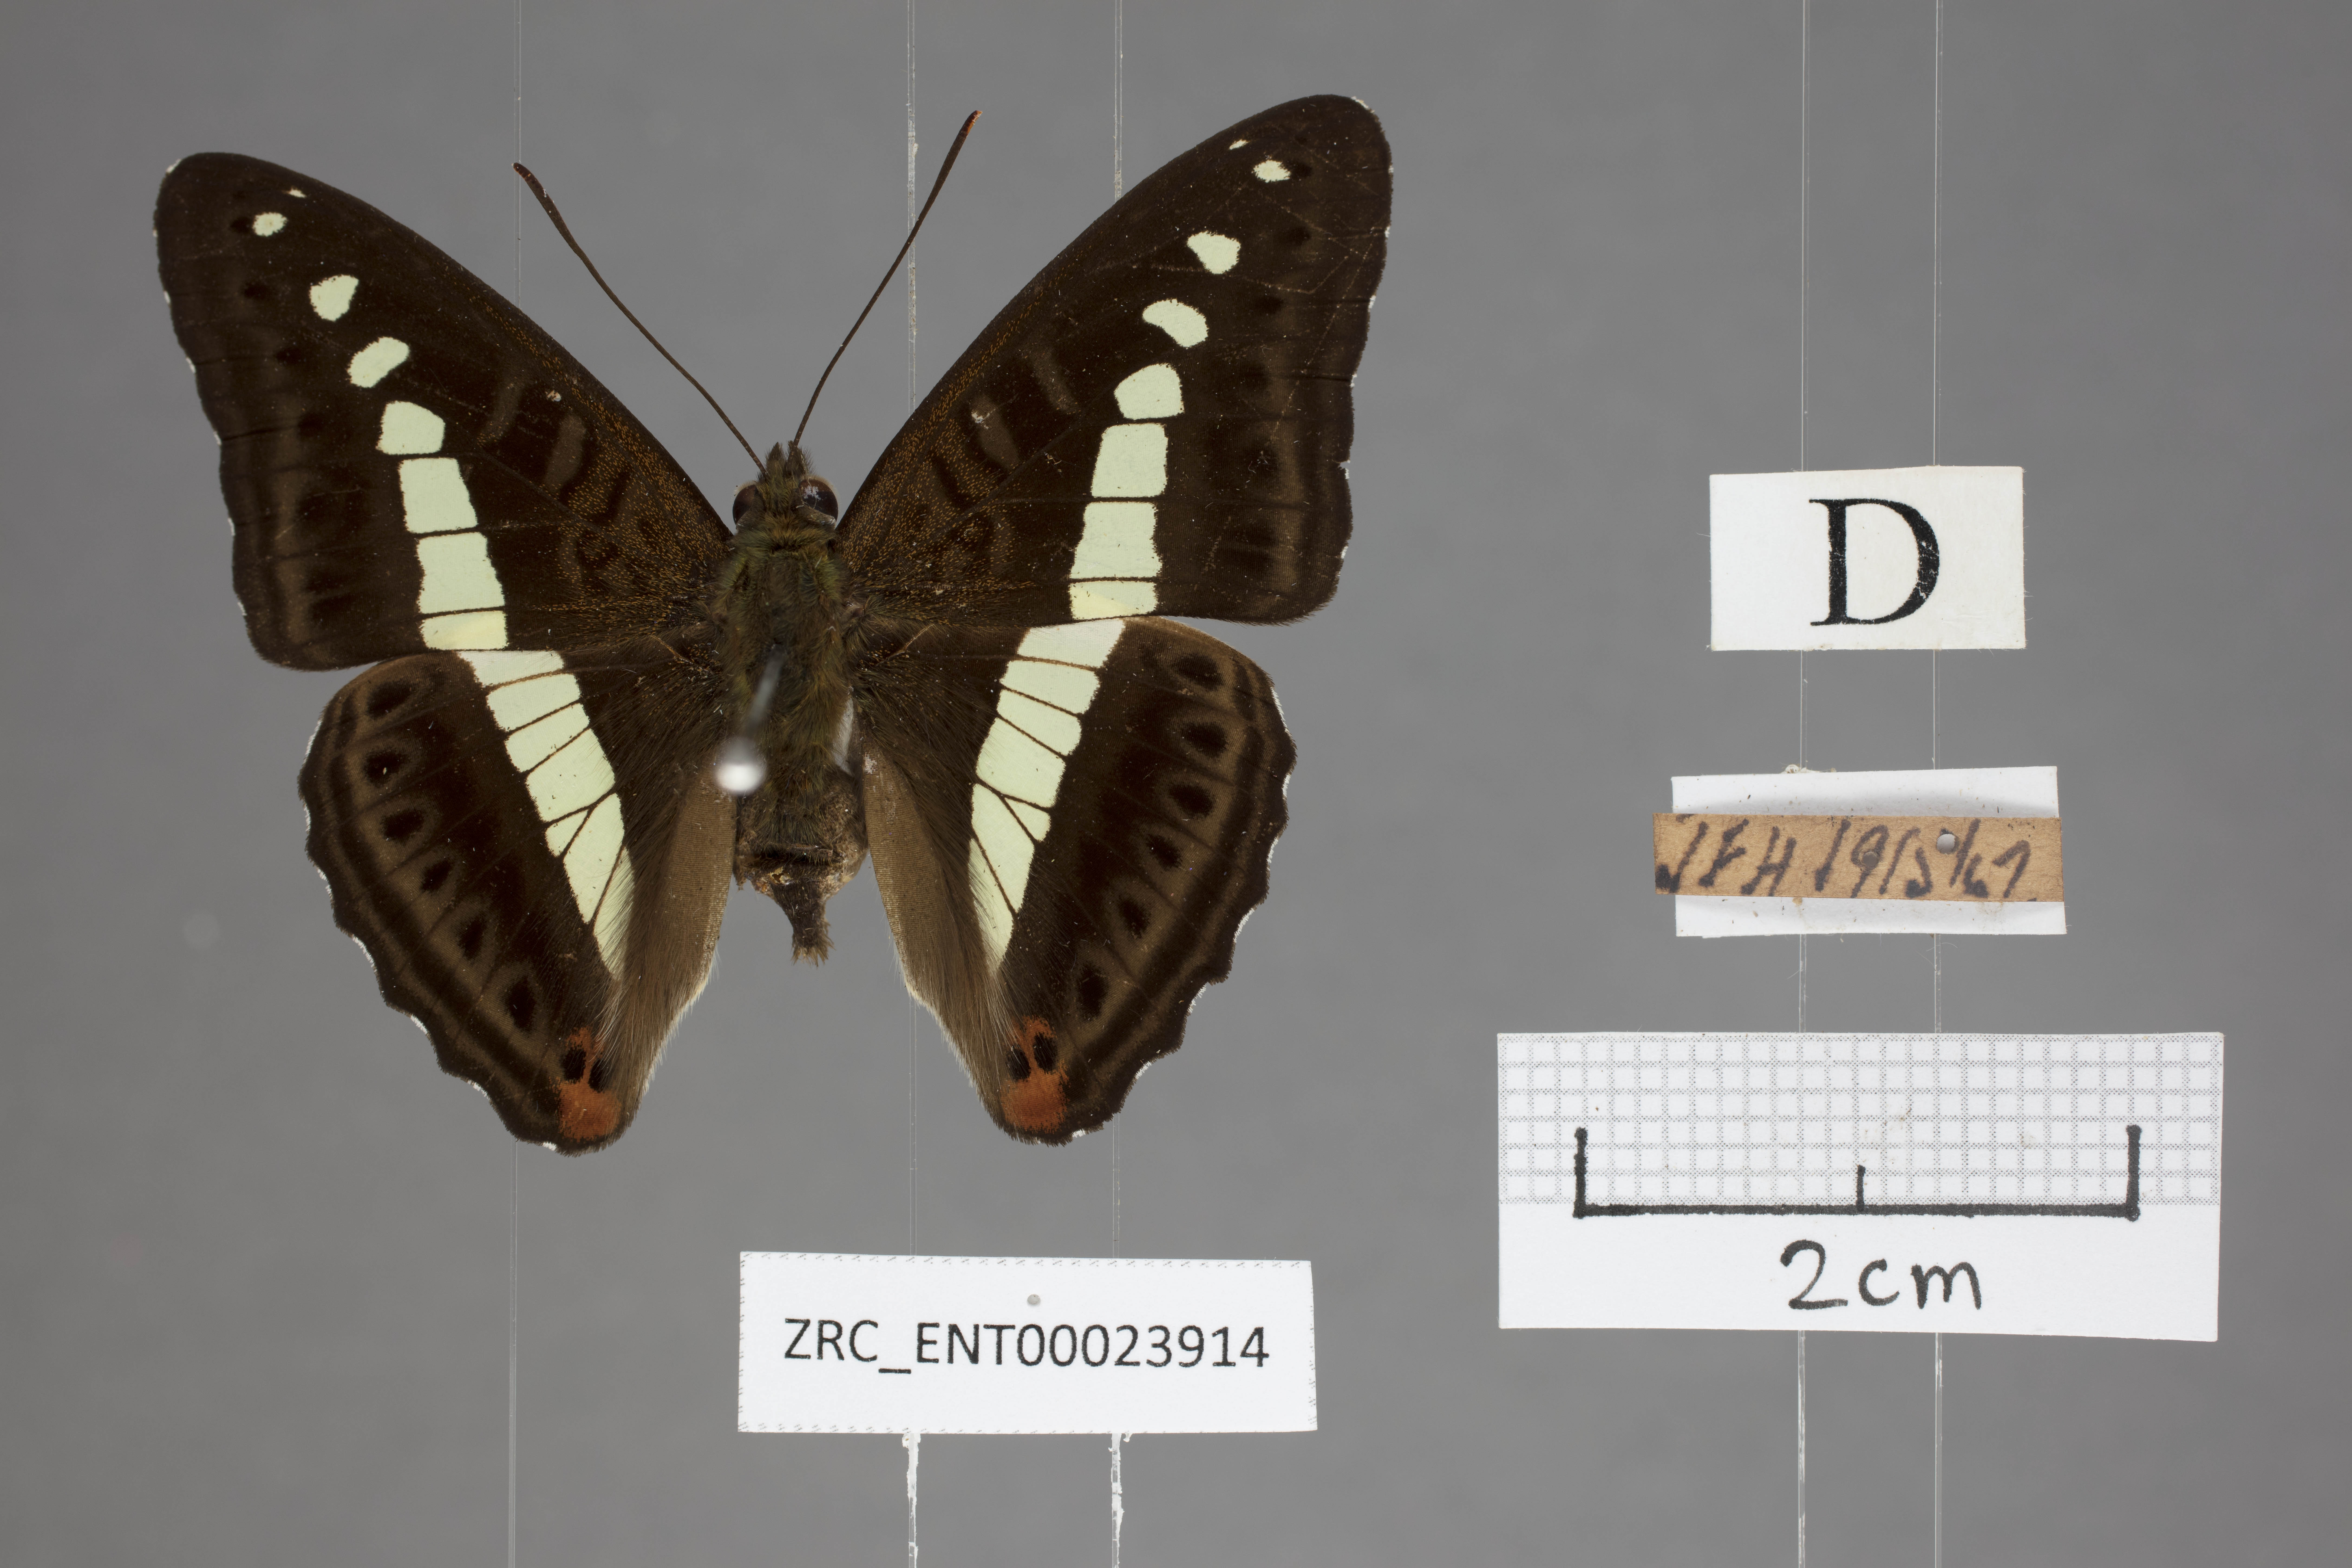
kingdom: Animalia
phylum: Arthropoda
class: Insecta
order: Lepidoptera
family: Nymphalidae
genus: Limenitis
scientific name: Limenitis Sumalia daraxa
